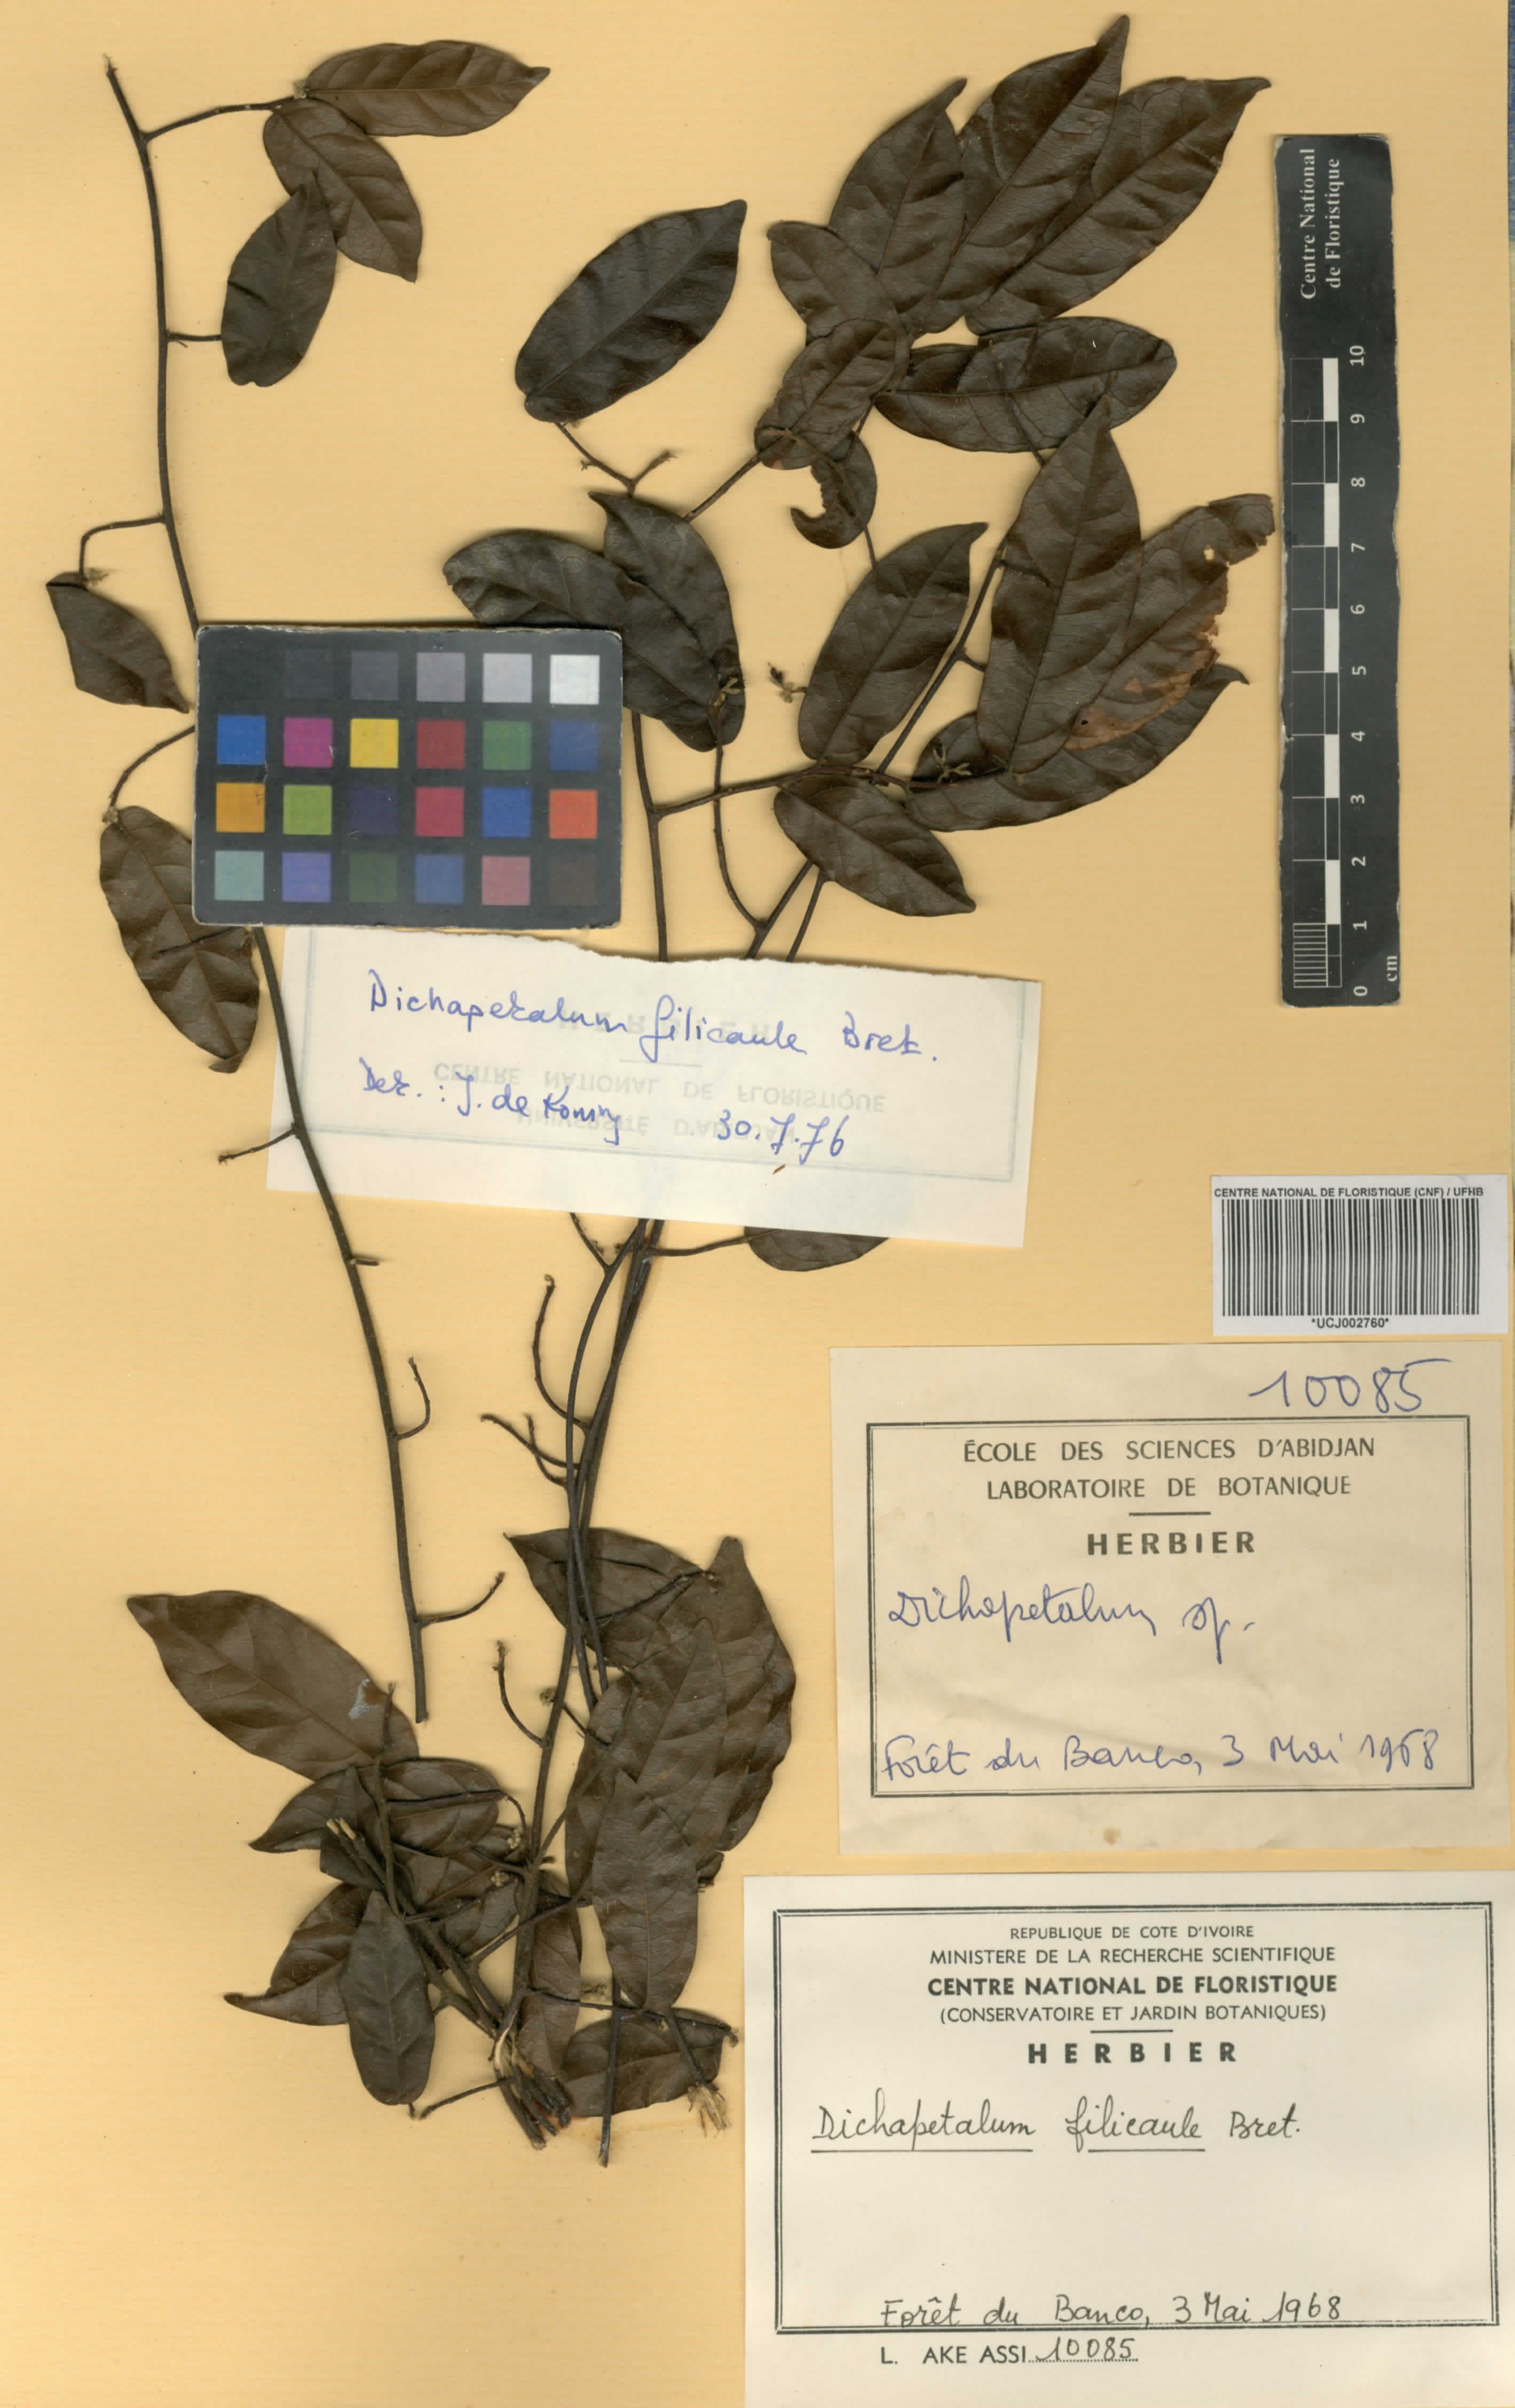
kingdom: Plantae
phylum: Tracheophyta
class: Magnoliopsida
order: Malpighiales
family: Dichapetalaceae
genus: Dichapetalum
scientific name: Dichapetalum filicaule
